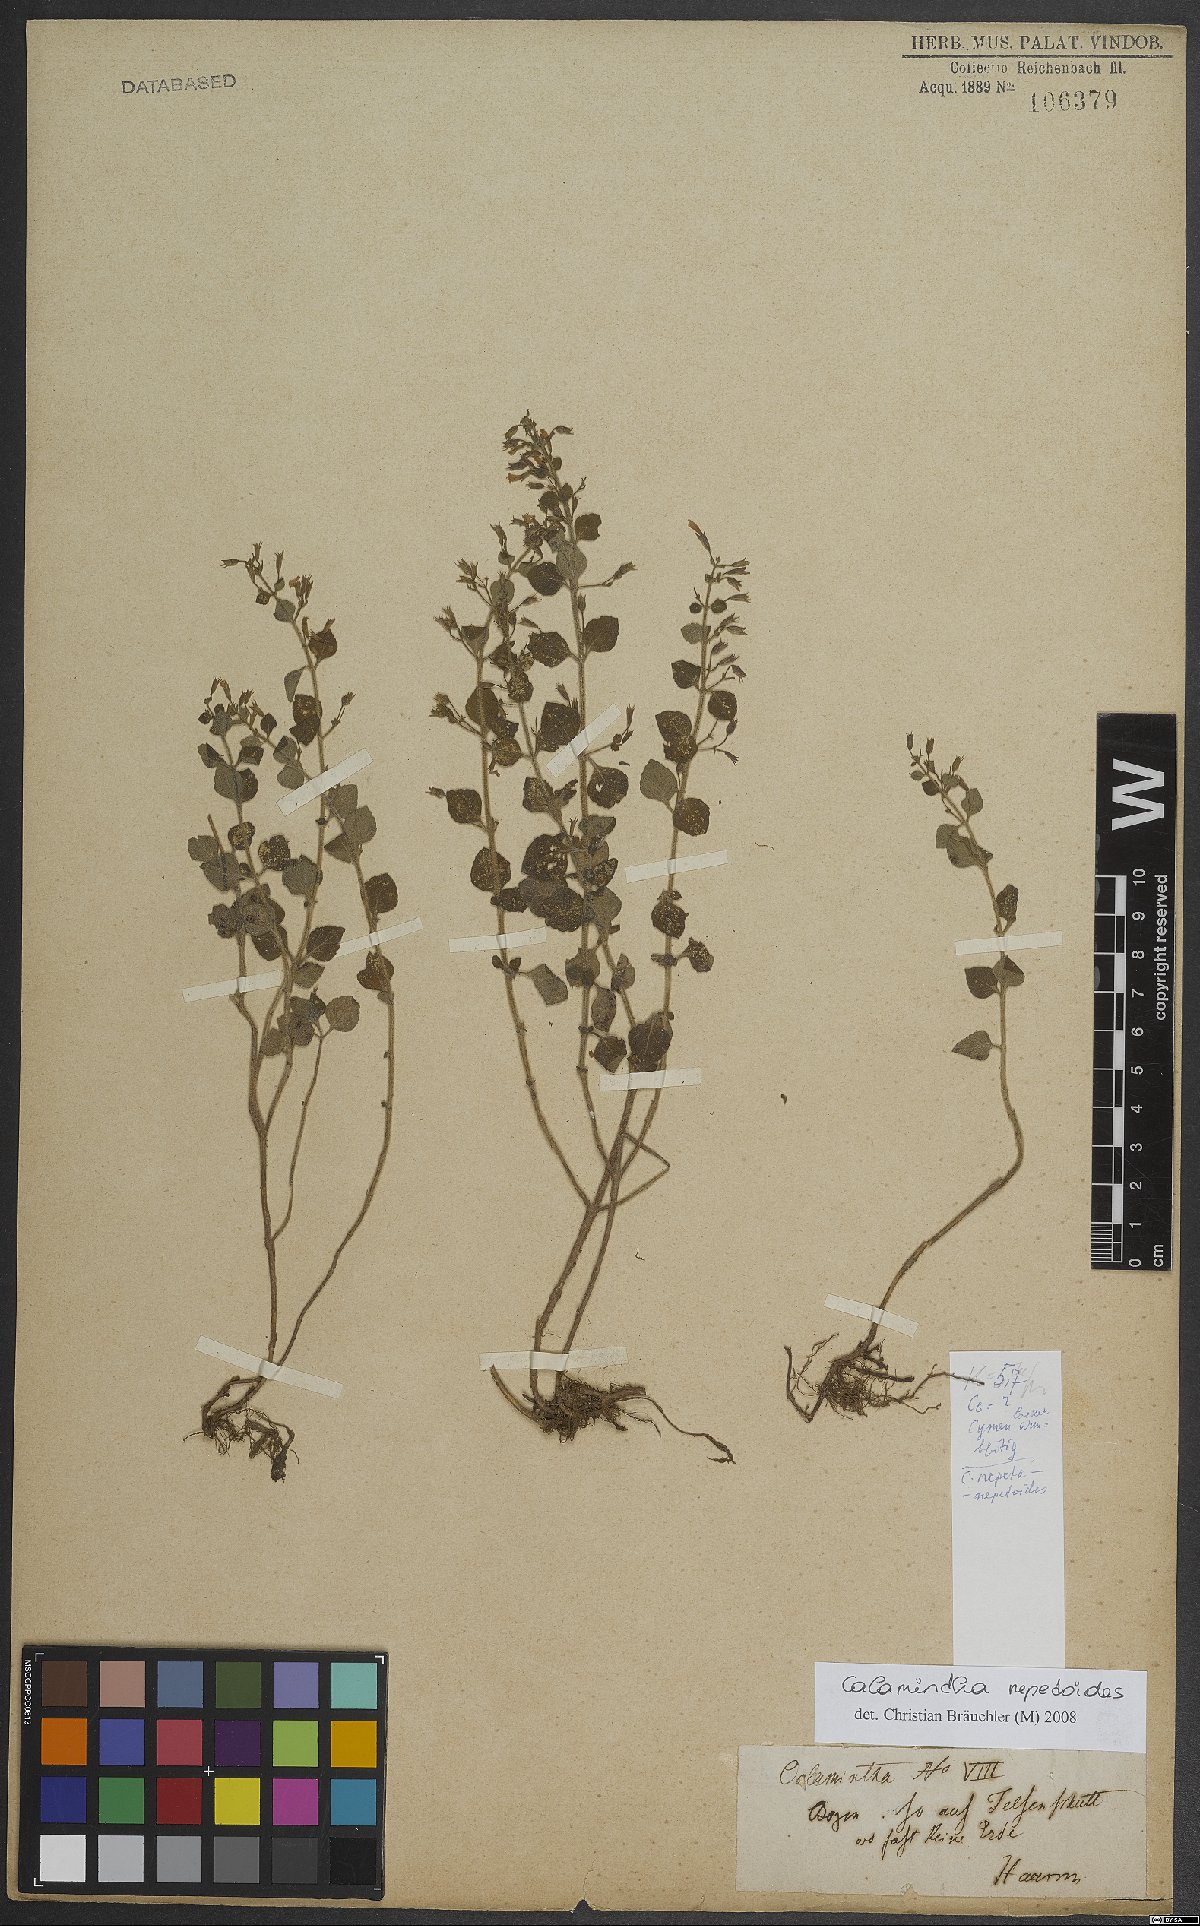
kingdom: Plantae
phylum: Tracheophyta
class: Magnoliopsida
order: Lamiales
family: Lamiaceae
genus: Clinopodium
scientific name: Clinopodium nepeta
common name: Lesser calamint
